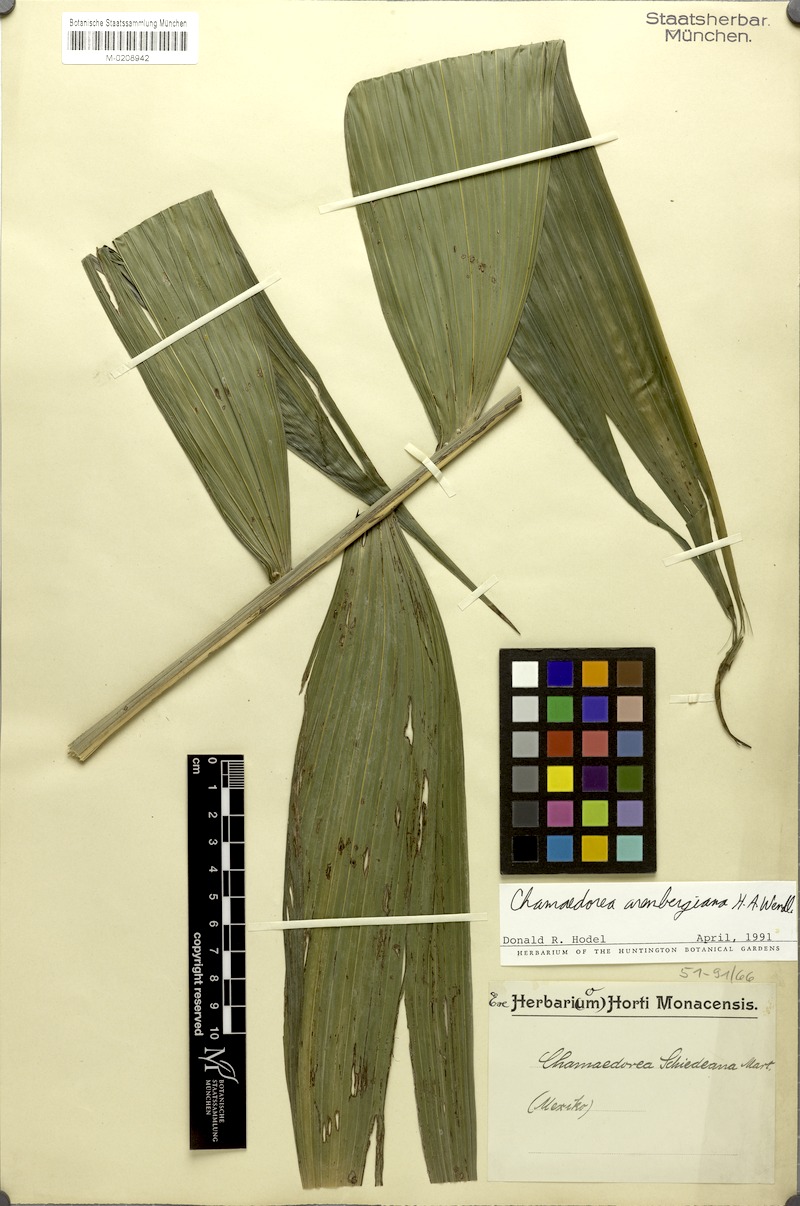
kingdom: Plantae
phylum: Tracheophyta
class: Liliopsida
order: Arecales
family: Arecaceae
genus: Chamaedorea
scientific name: Chamaedorea arenbergiana
